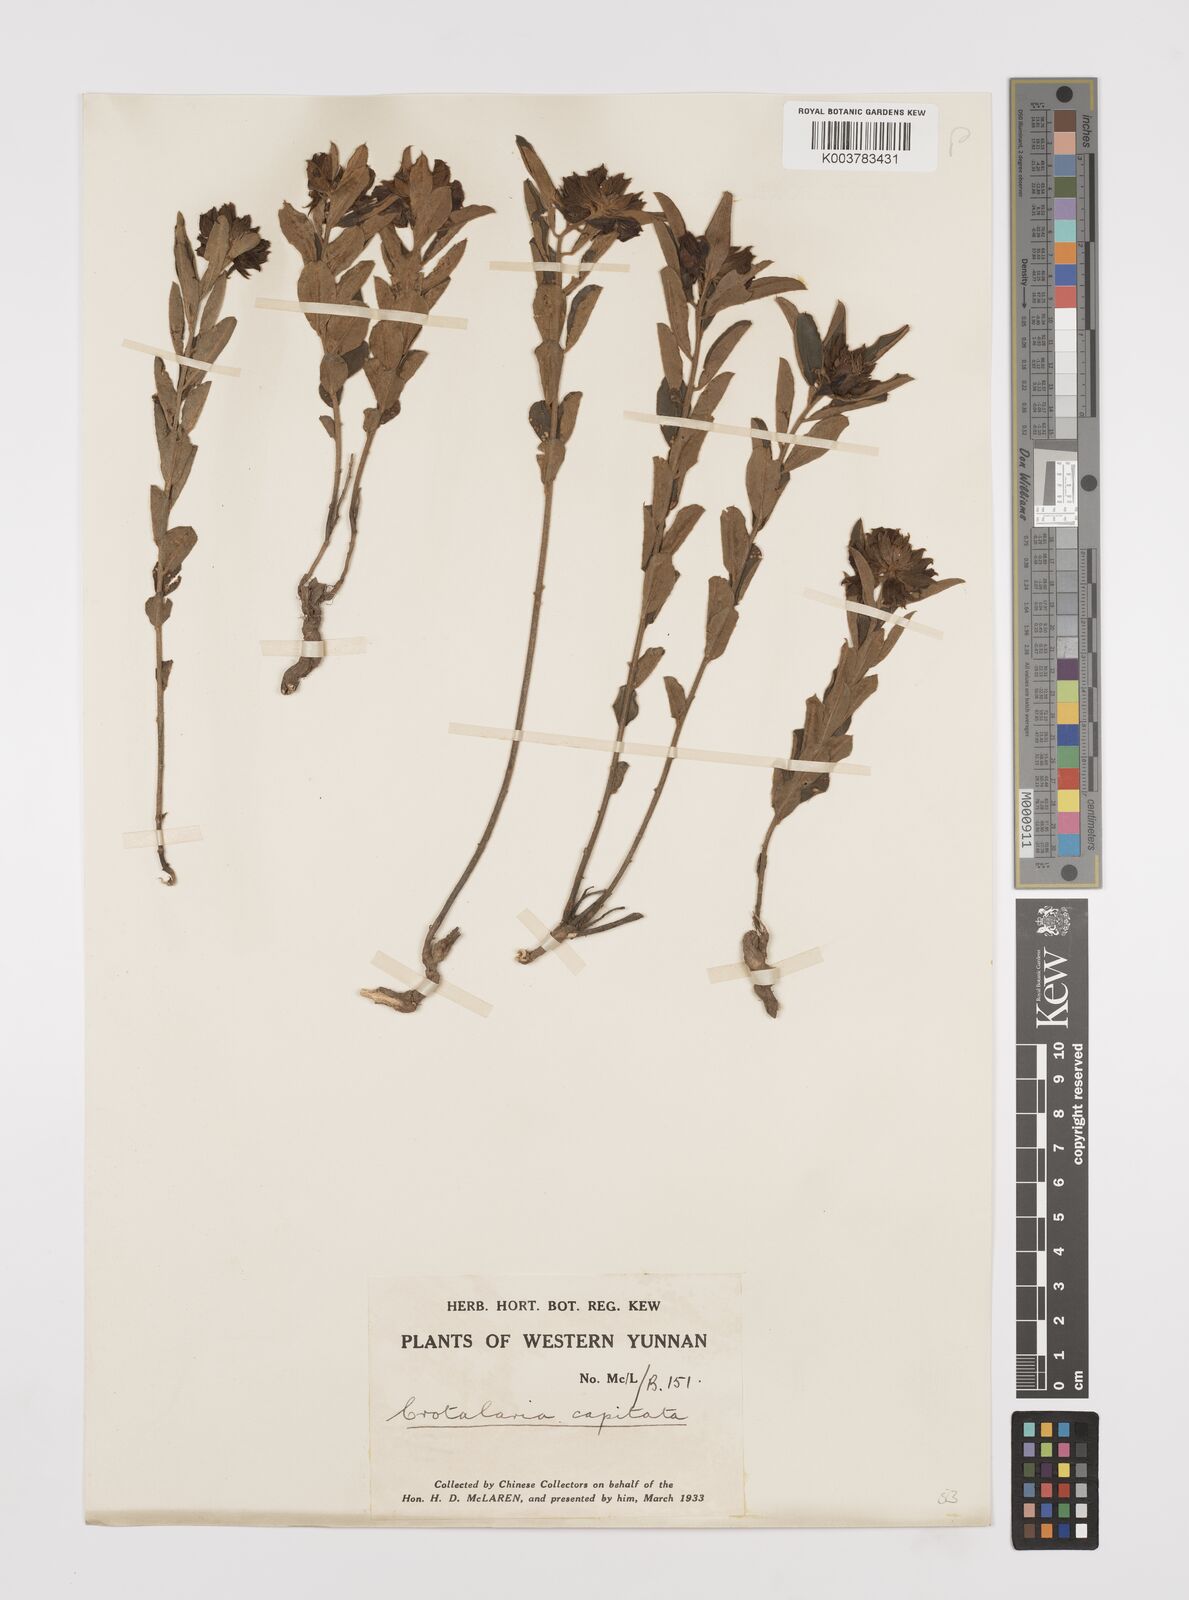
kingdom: Plantae
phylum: Tracheophyta
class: Magnoliopsida
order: Fabales
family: Fabaceae
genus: Liparia
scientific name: Liparia capitata
